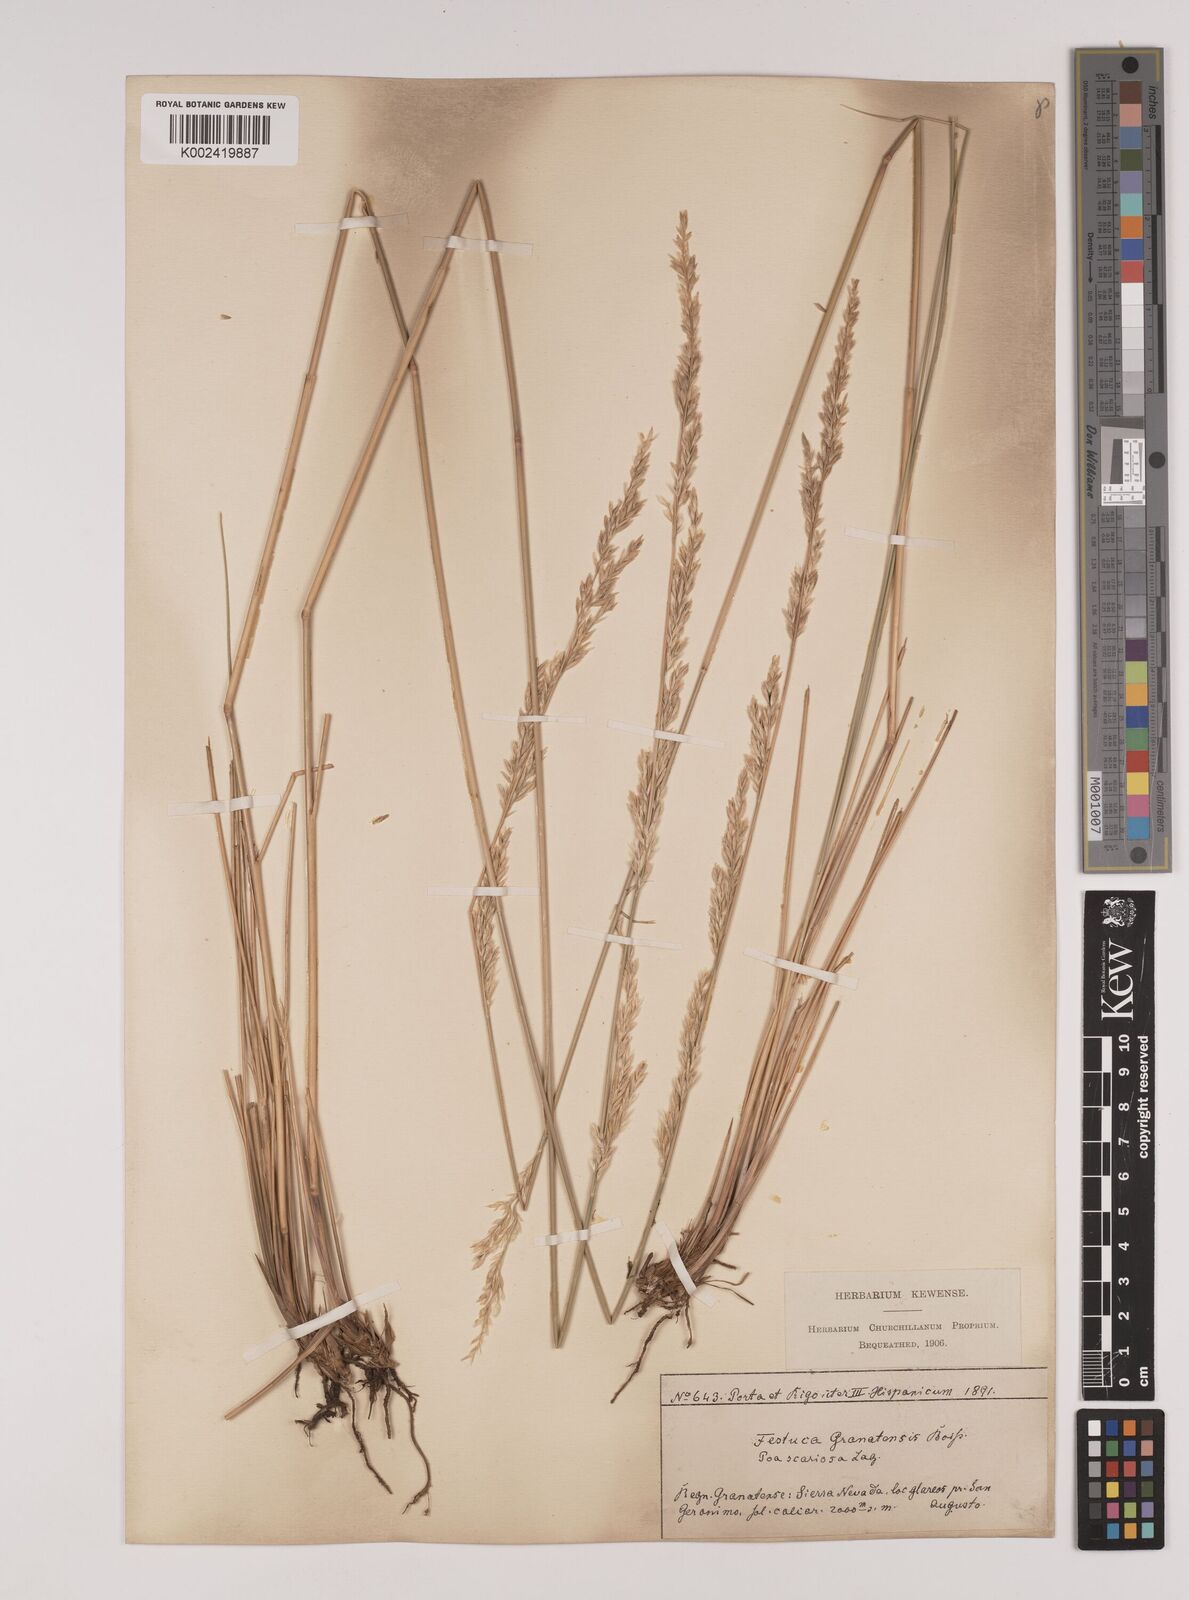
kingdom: Plantae
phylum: Tracheophyta
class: Liliopsida
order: Poales
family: Poaceae
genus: Festuca
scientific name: Festuca scariosa
